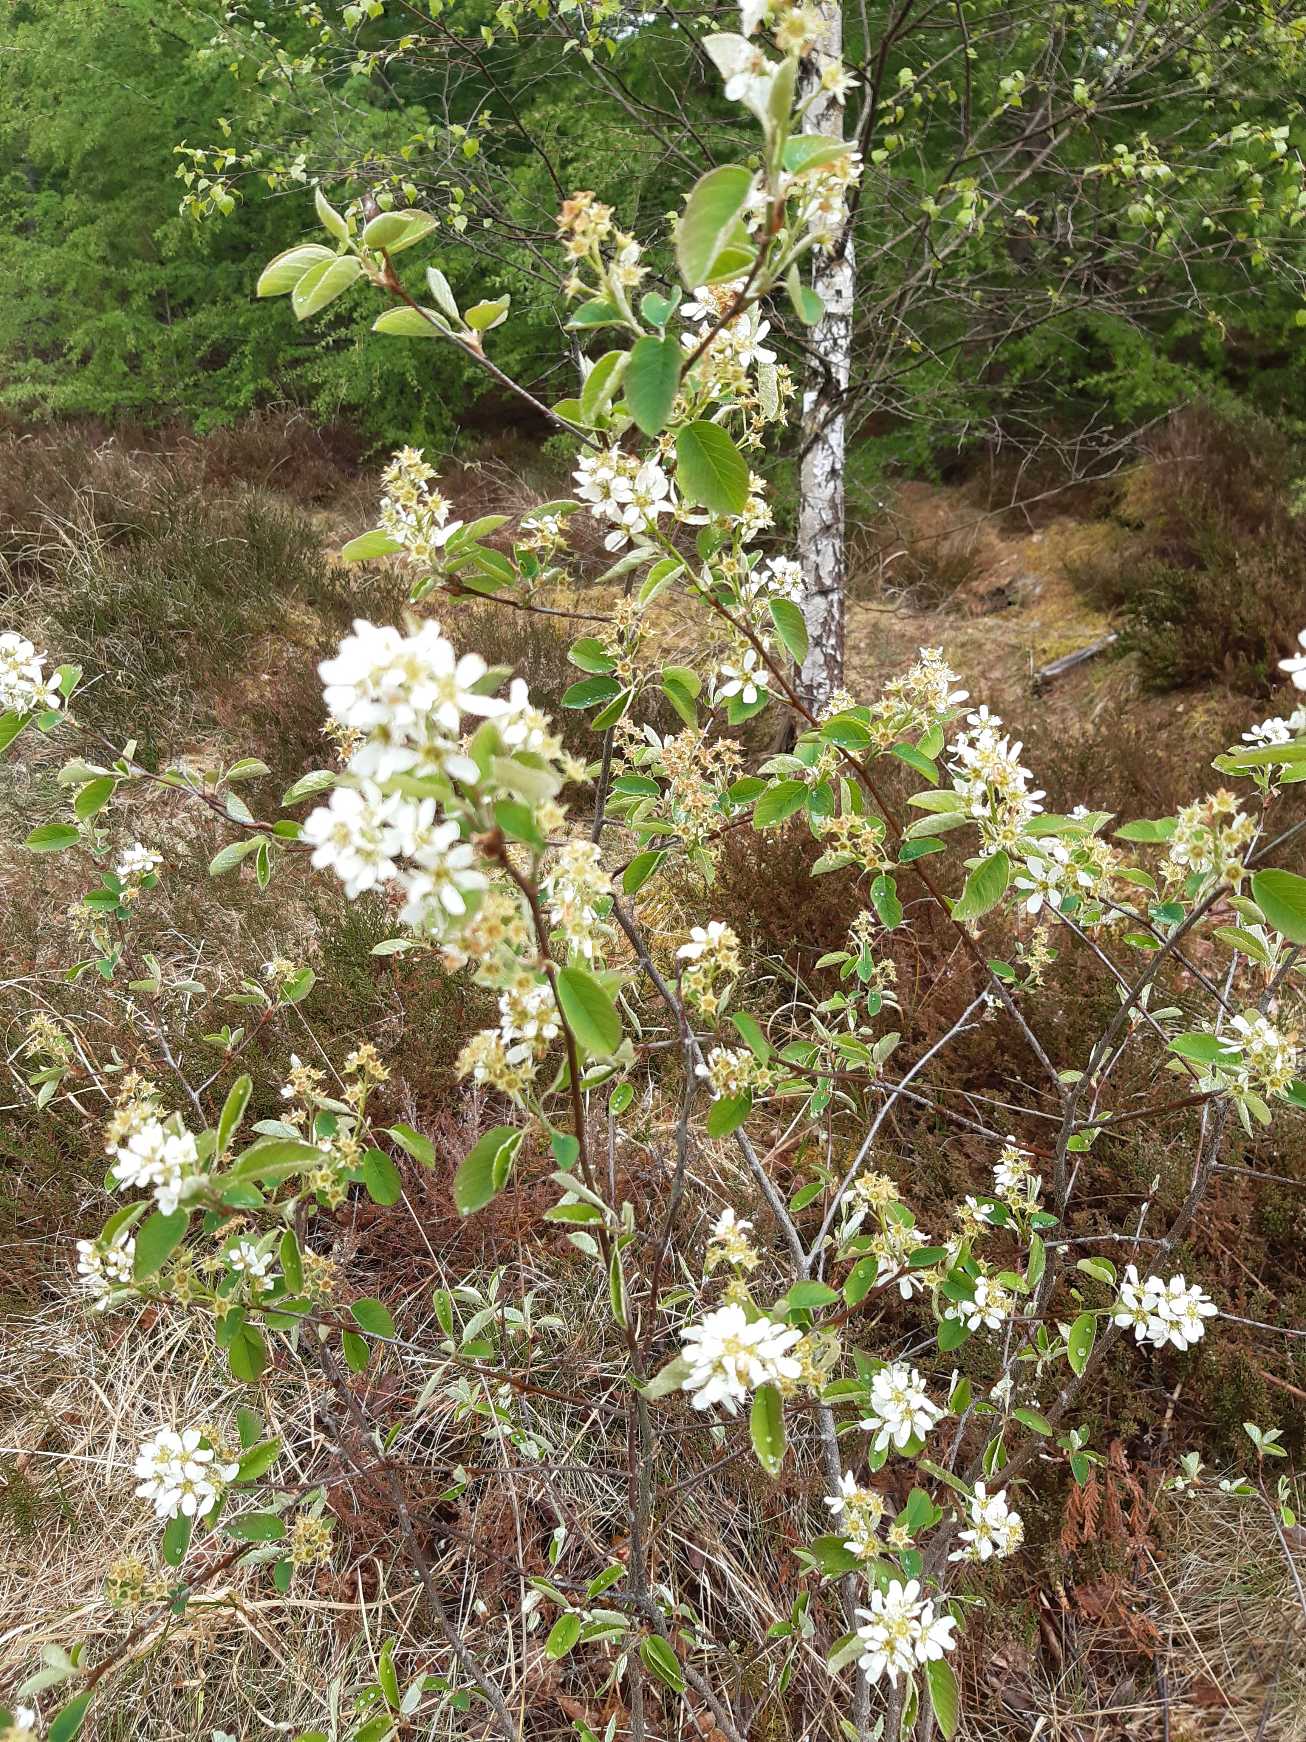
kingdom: Plantae
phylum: Tracheophyta
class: Magnoliopsida
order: Rosales
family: Rosaceae
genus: Amelanchier
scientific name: Amelanchier lamarckii
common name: Bærmispel
